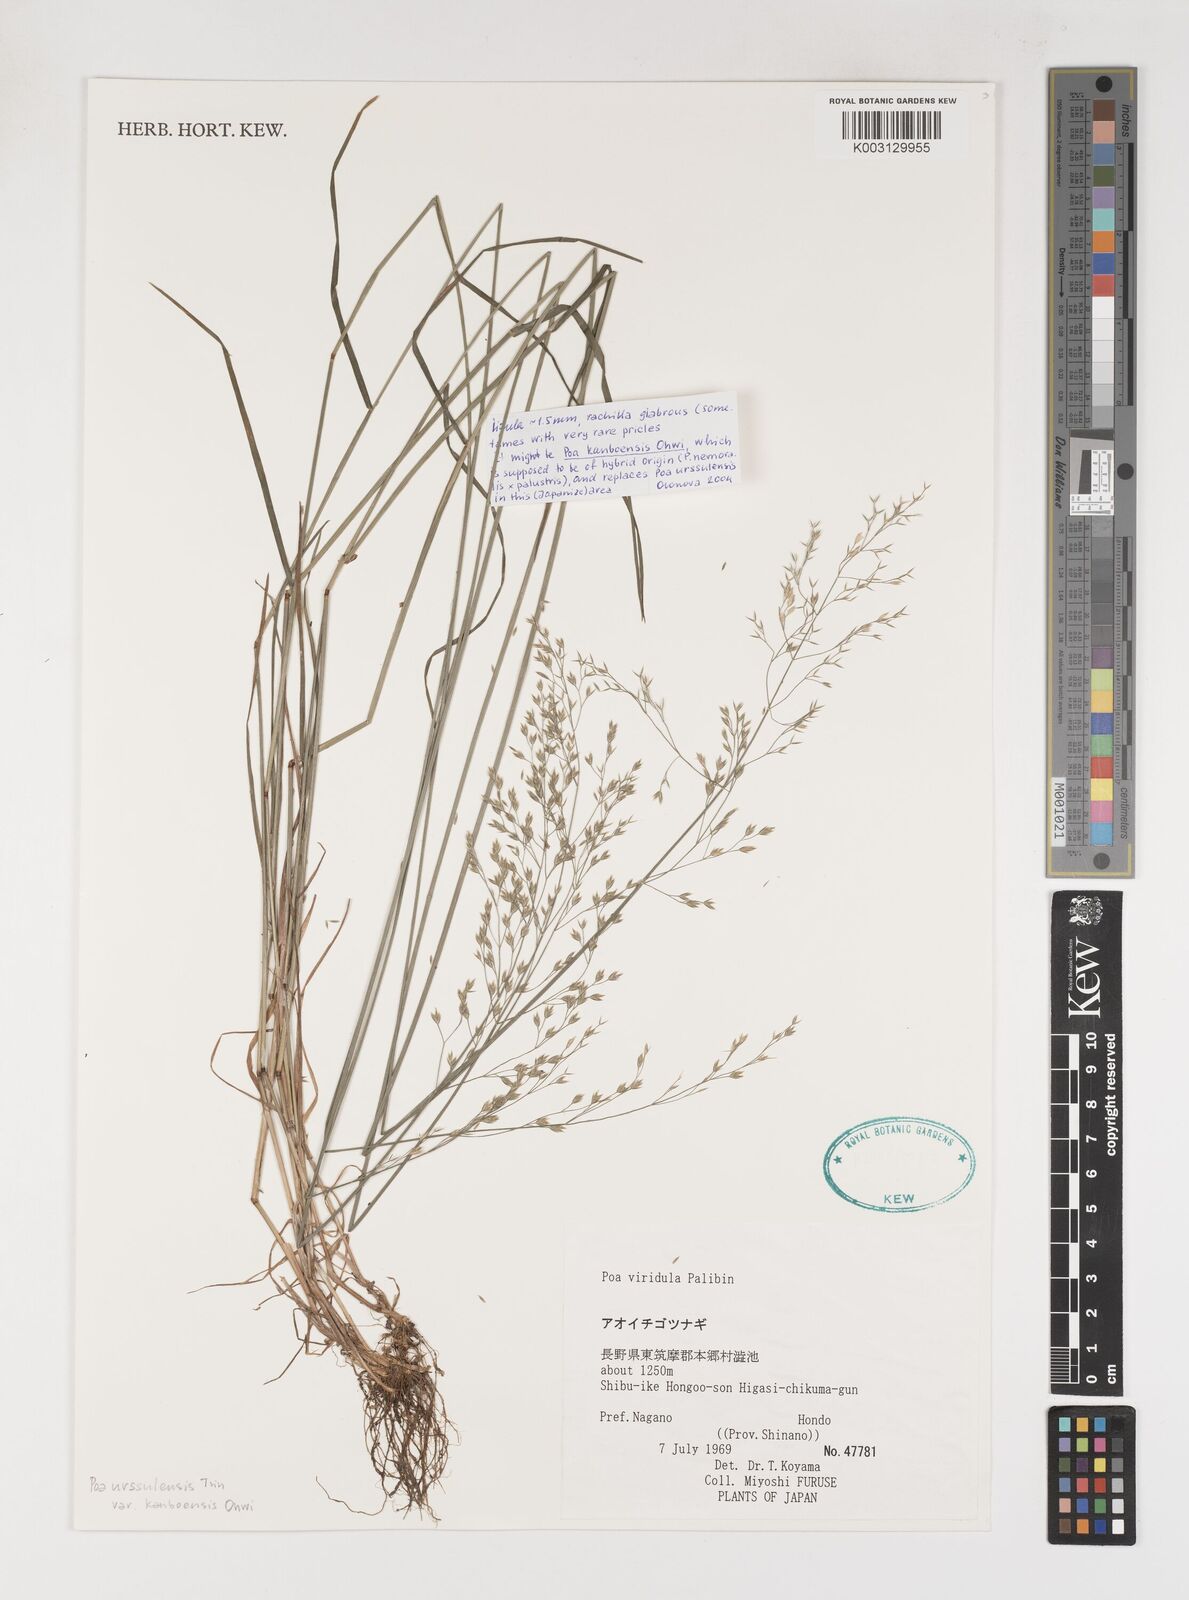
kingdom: Plantae
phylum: Tracheophyta
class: Liliopsida
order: Poales
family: Poaceae
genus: Poa
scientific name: Poa urssulensis
